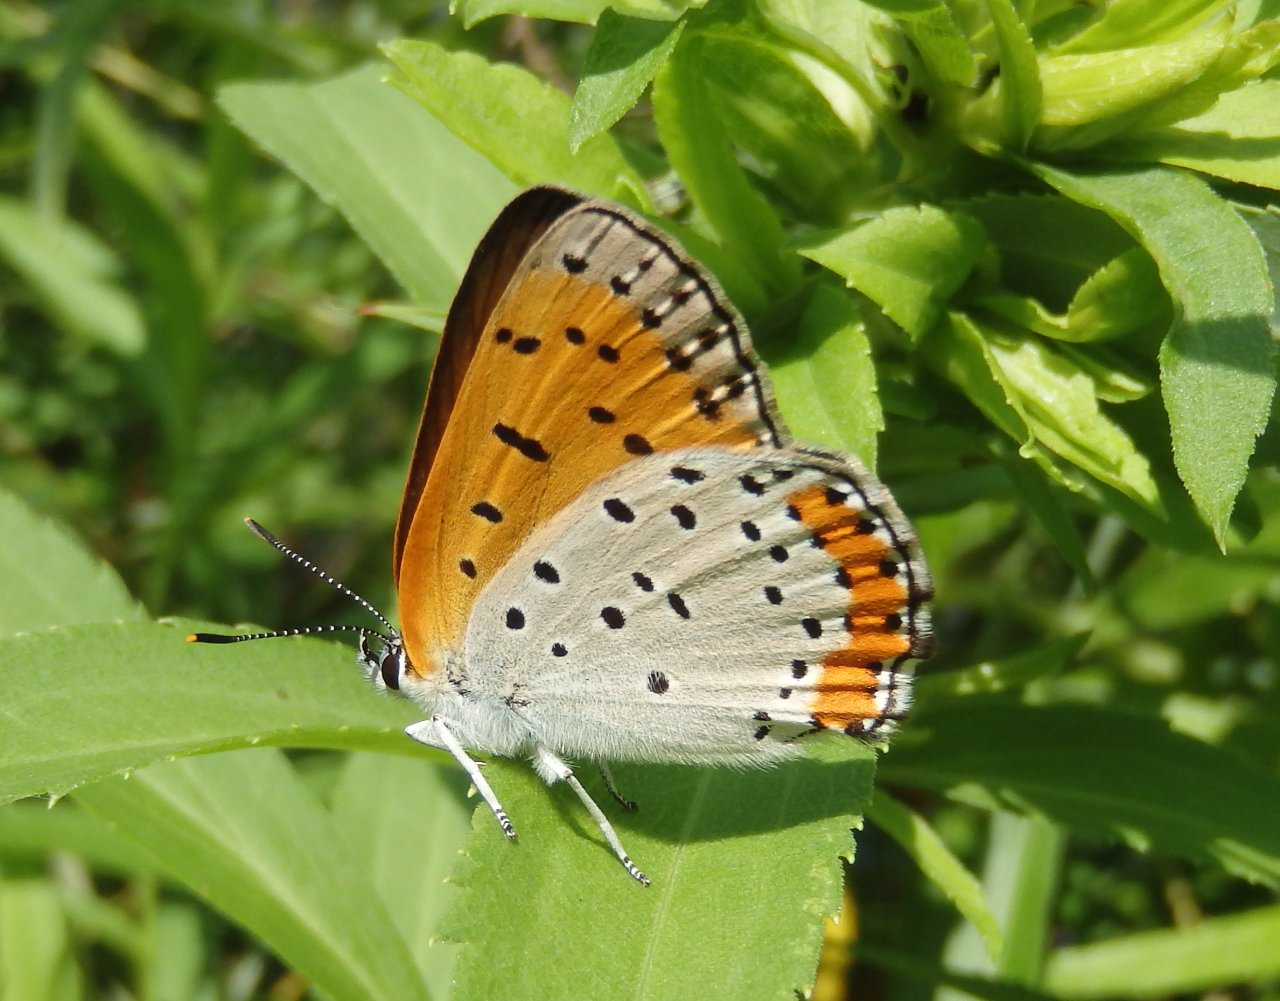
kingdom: Animalia
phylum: Arthropoda
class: Insecta
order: Lepidoptera
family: Sesiidae
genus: Sesia
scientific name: Sesia Lycaena hyllus
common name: Bronze Copper
